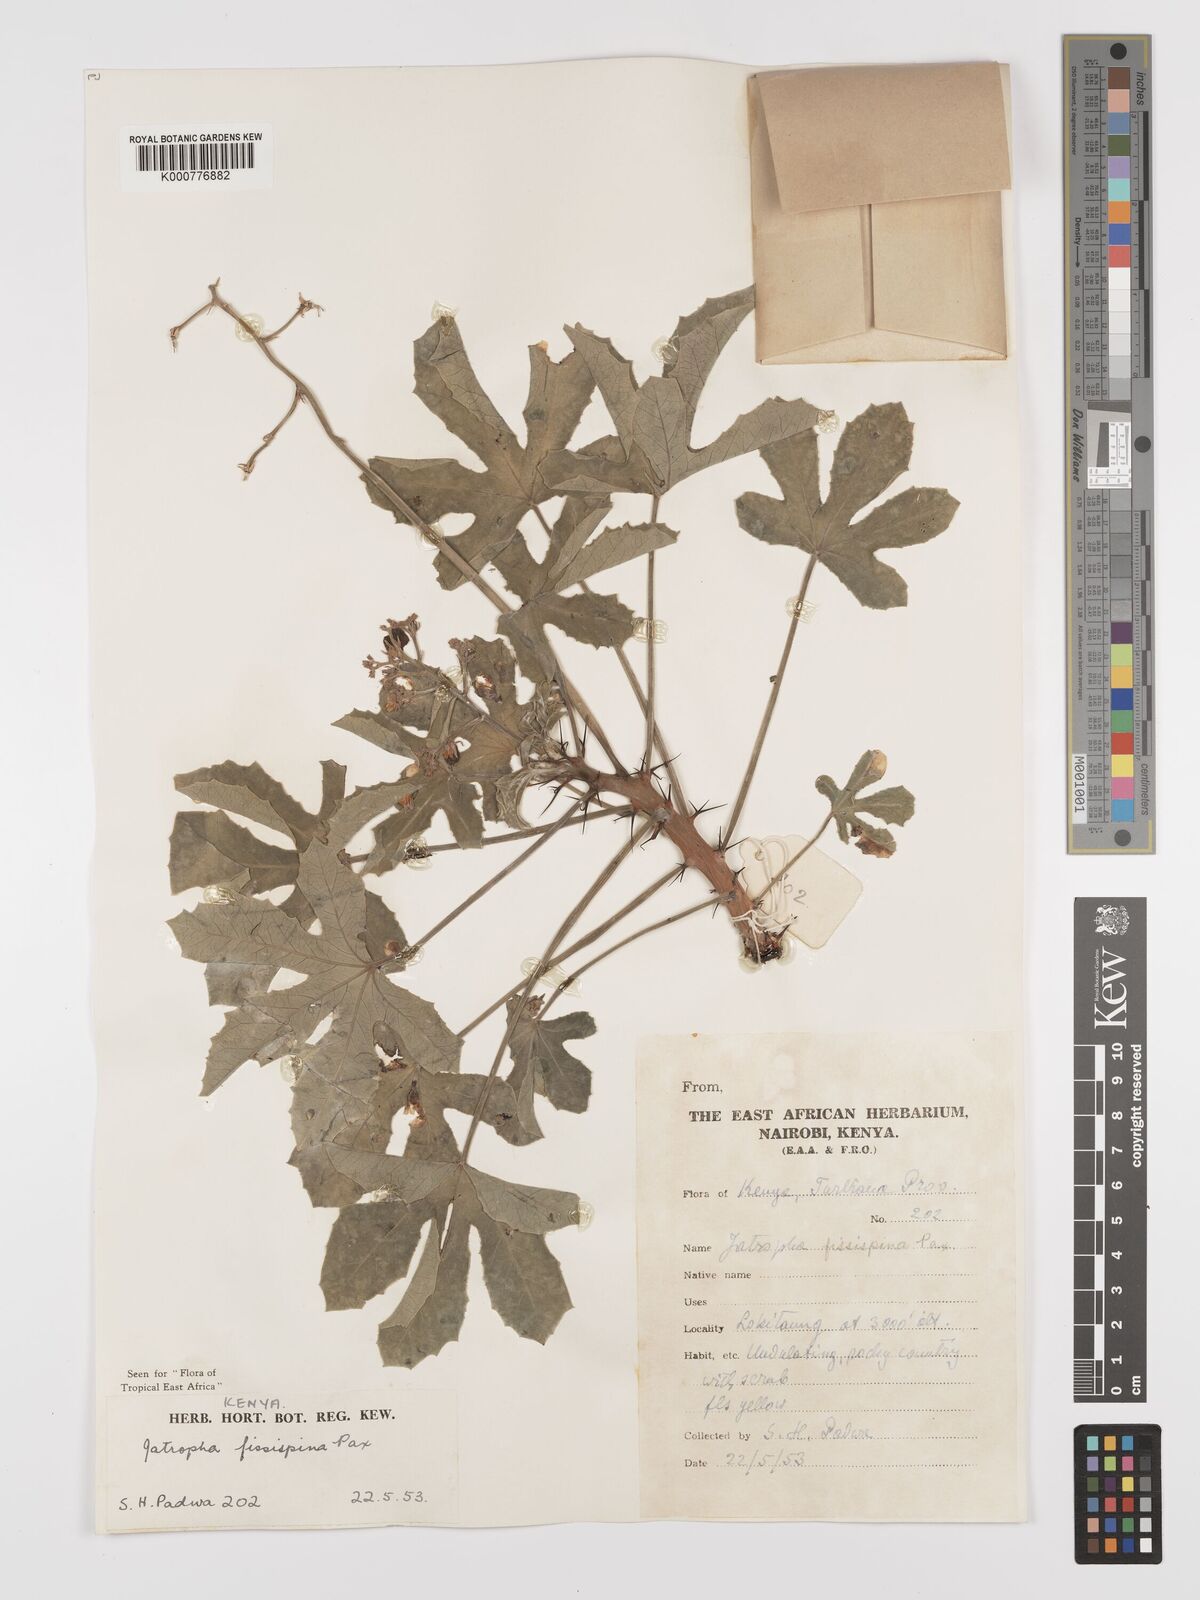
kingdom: Plantae
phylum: Tracheophyta
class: Magnoliopsida
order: Malpighiales
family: Euphorbiaceae
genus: Jatropha
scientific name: Jatropha ellenbeckii
